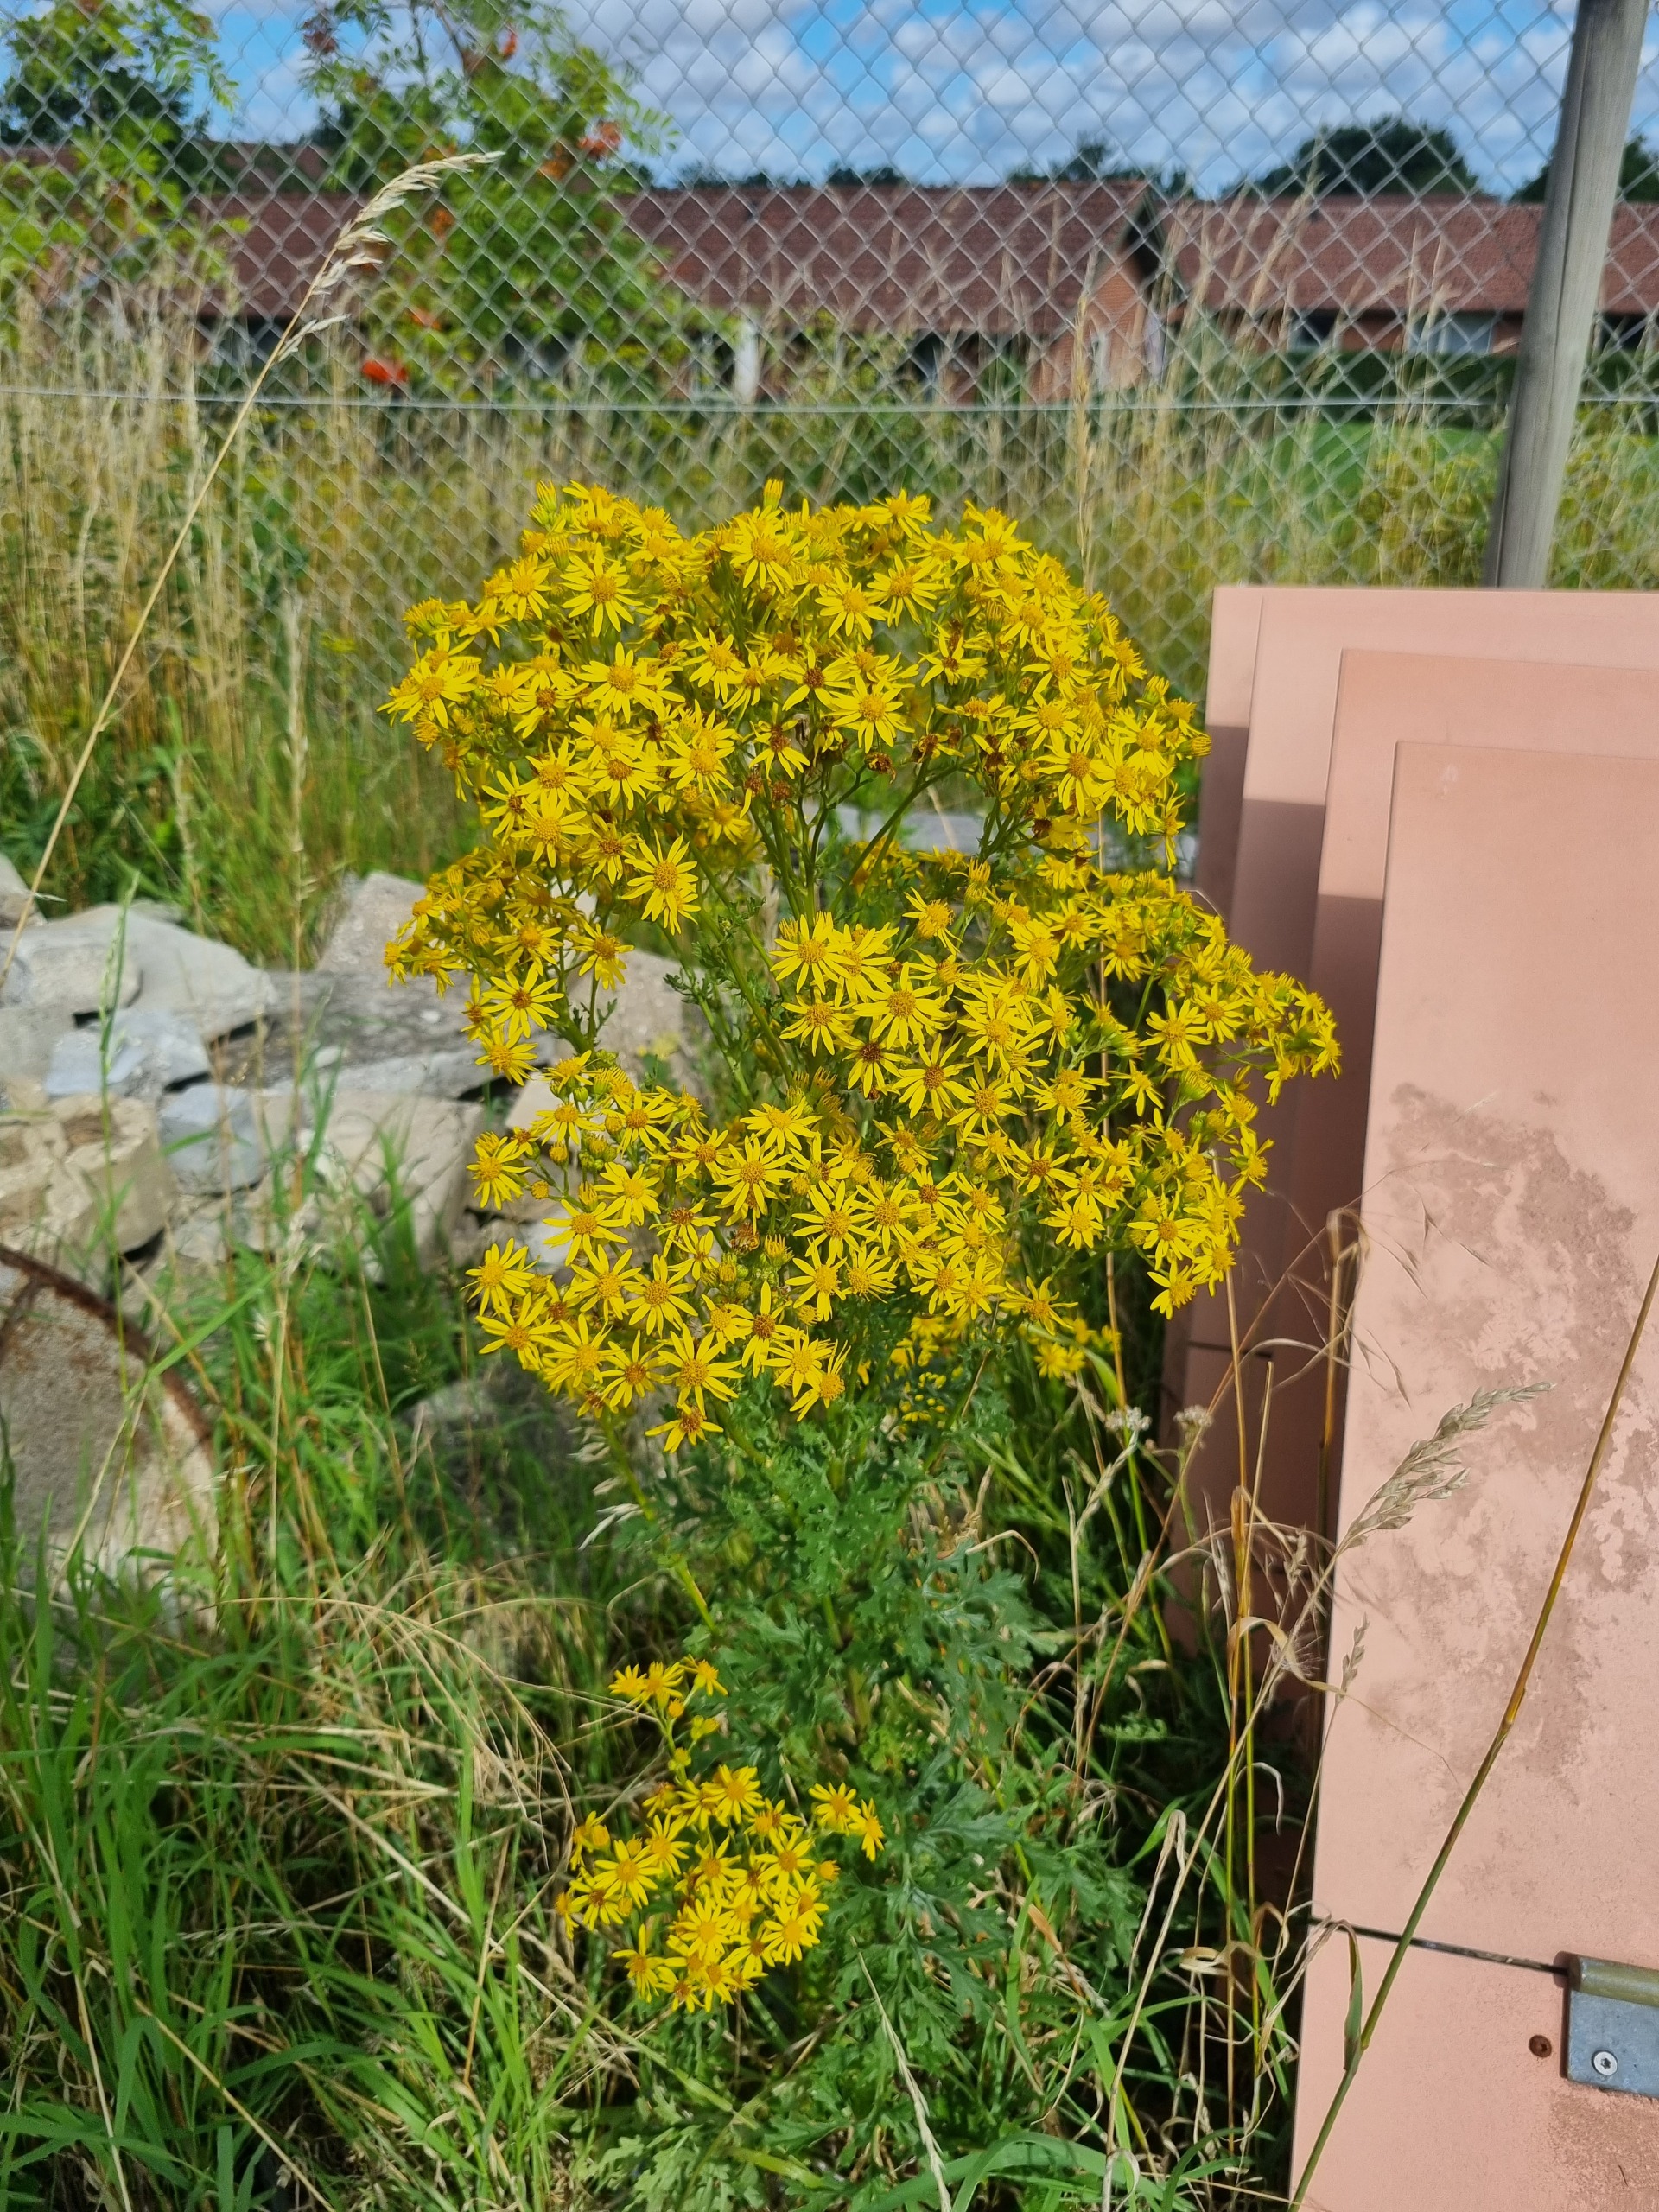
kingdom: Plantae
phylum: Tracheophyta
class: Magnoliopsida
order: Asterales
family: Asteraceae
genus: Jacobaea
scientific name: Jacobaea vulgaris
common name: Eng-brandbæger
